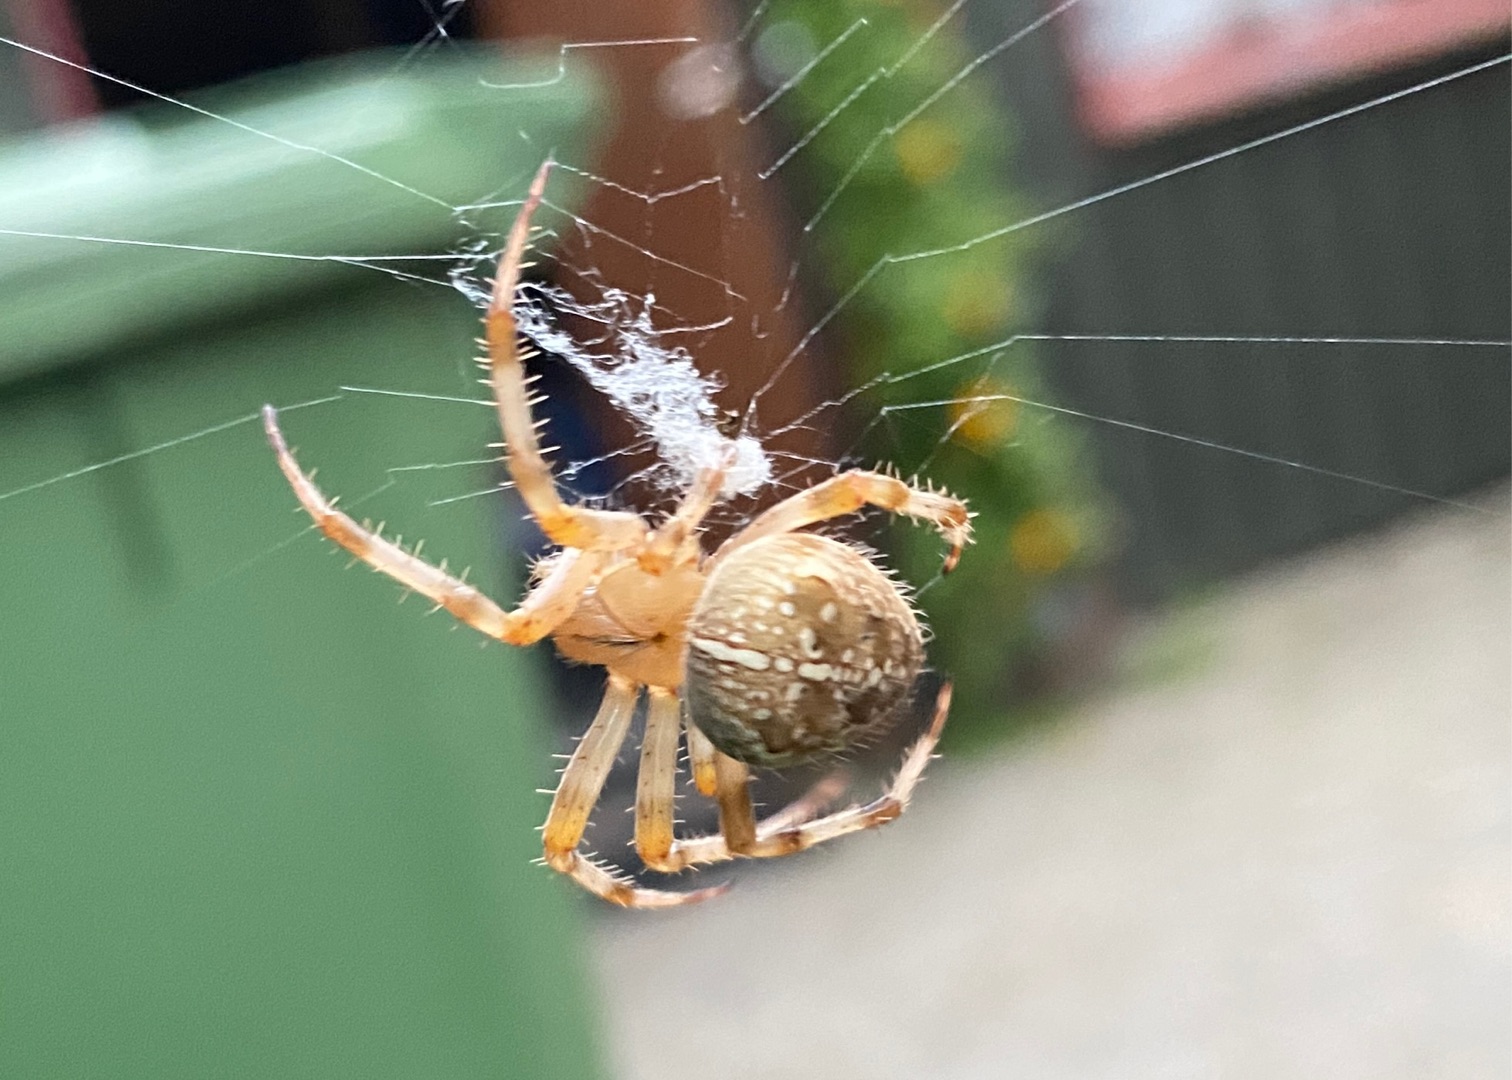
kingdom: Animalia
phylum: Arthropoda
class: Arachnida
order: Araneae
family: Araneidae
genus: Araneus
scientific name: Araneus diadematus
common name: Korsedderkop
